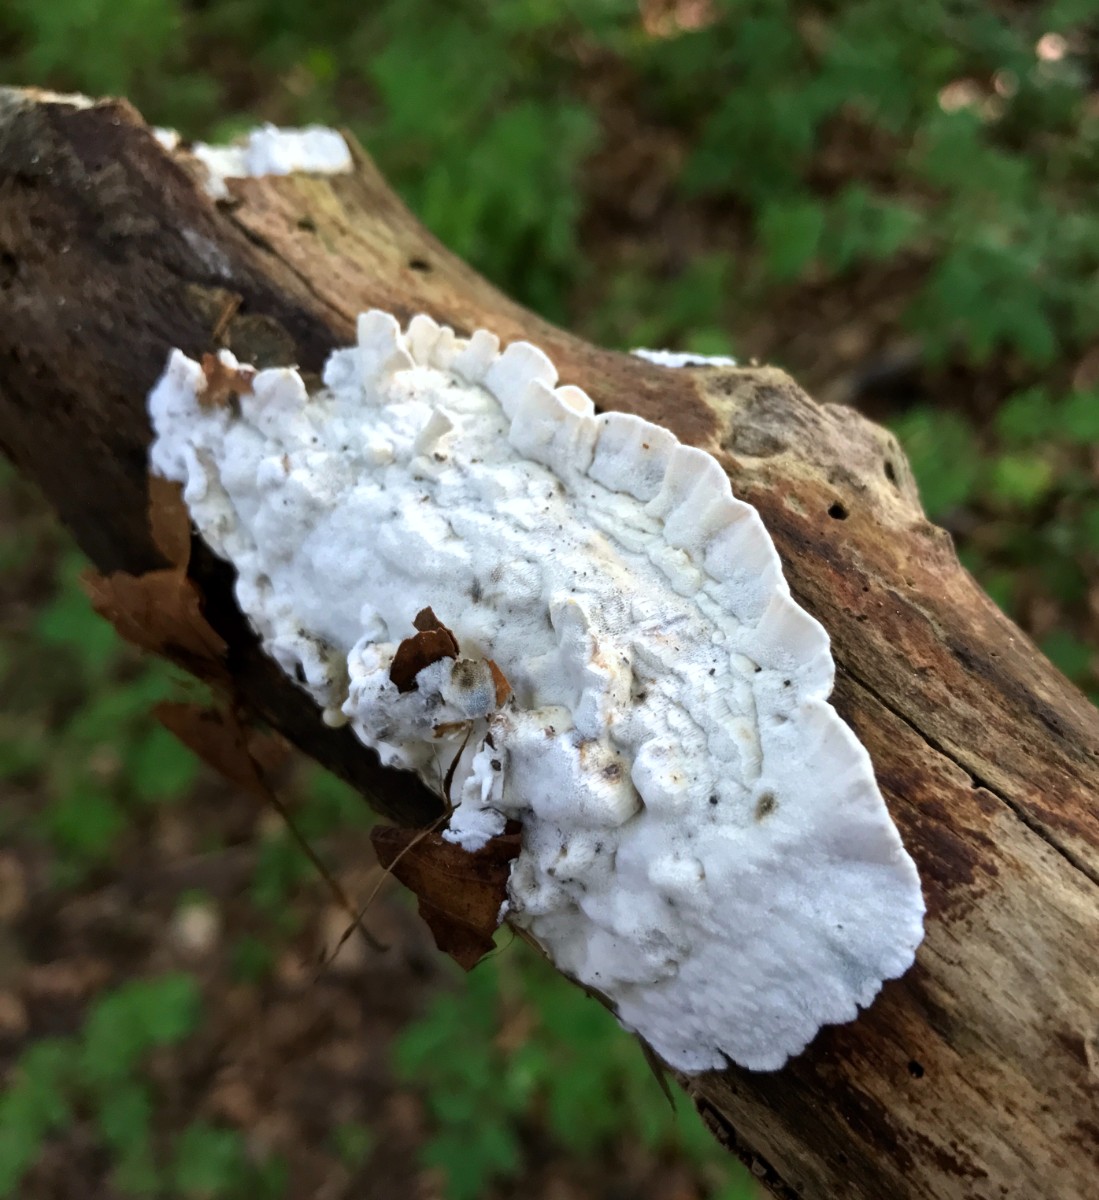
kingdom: Fungi
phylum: Basidiomycota
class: Agaricomycetes
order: Polyporales
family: Incrustoporiaceae
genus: Skeletocutis
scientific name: Skeletocutis nemoralis
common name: stor krystalporesvamp
